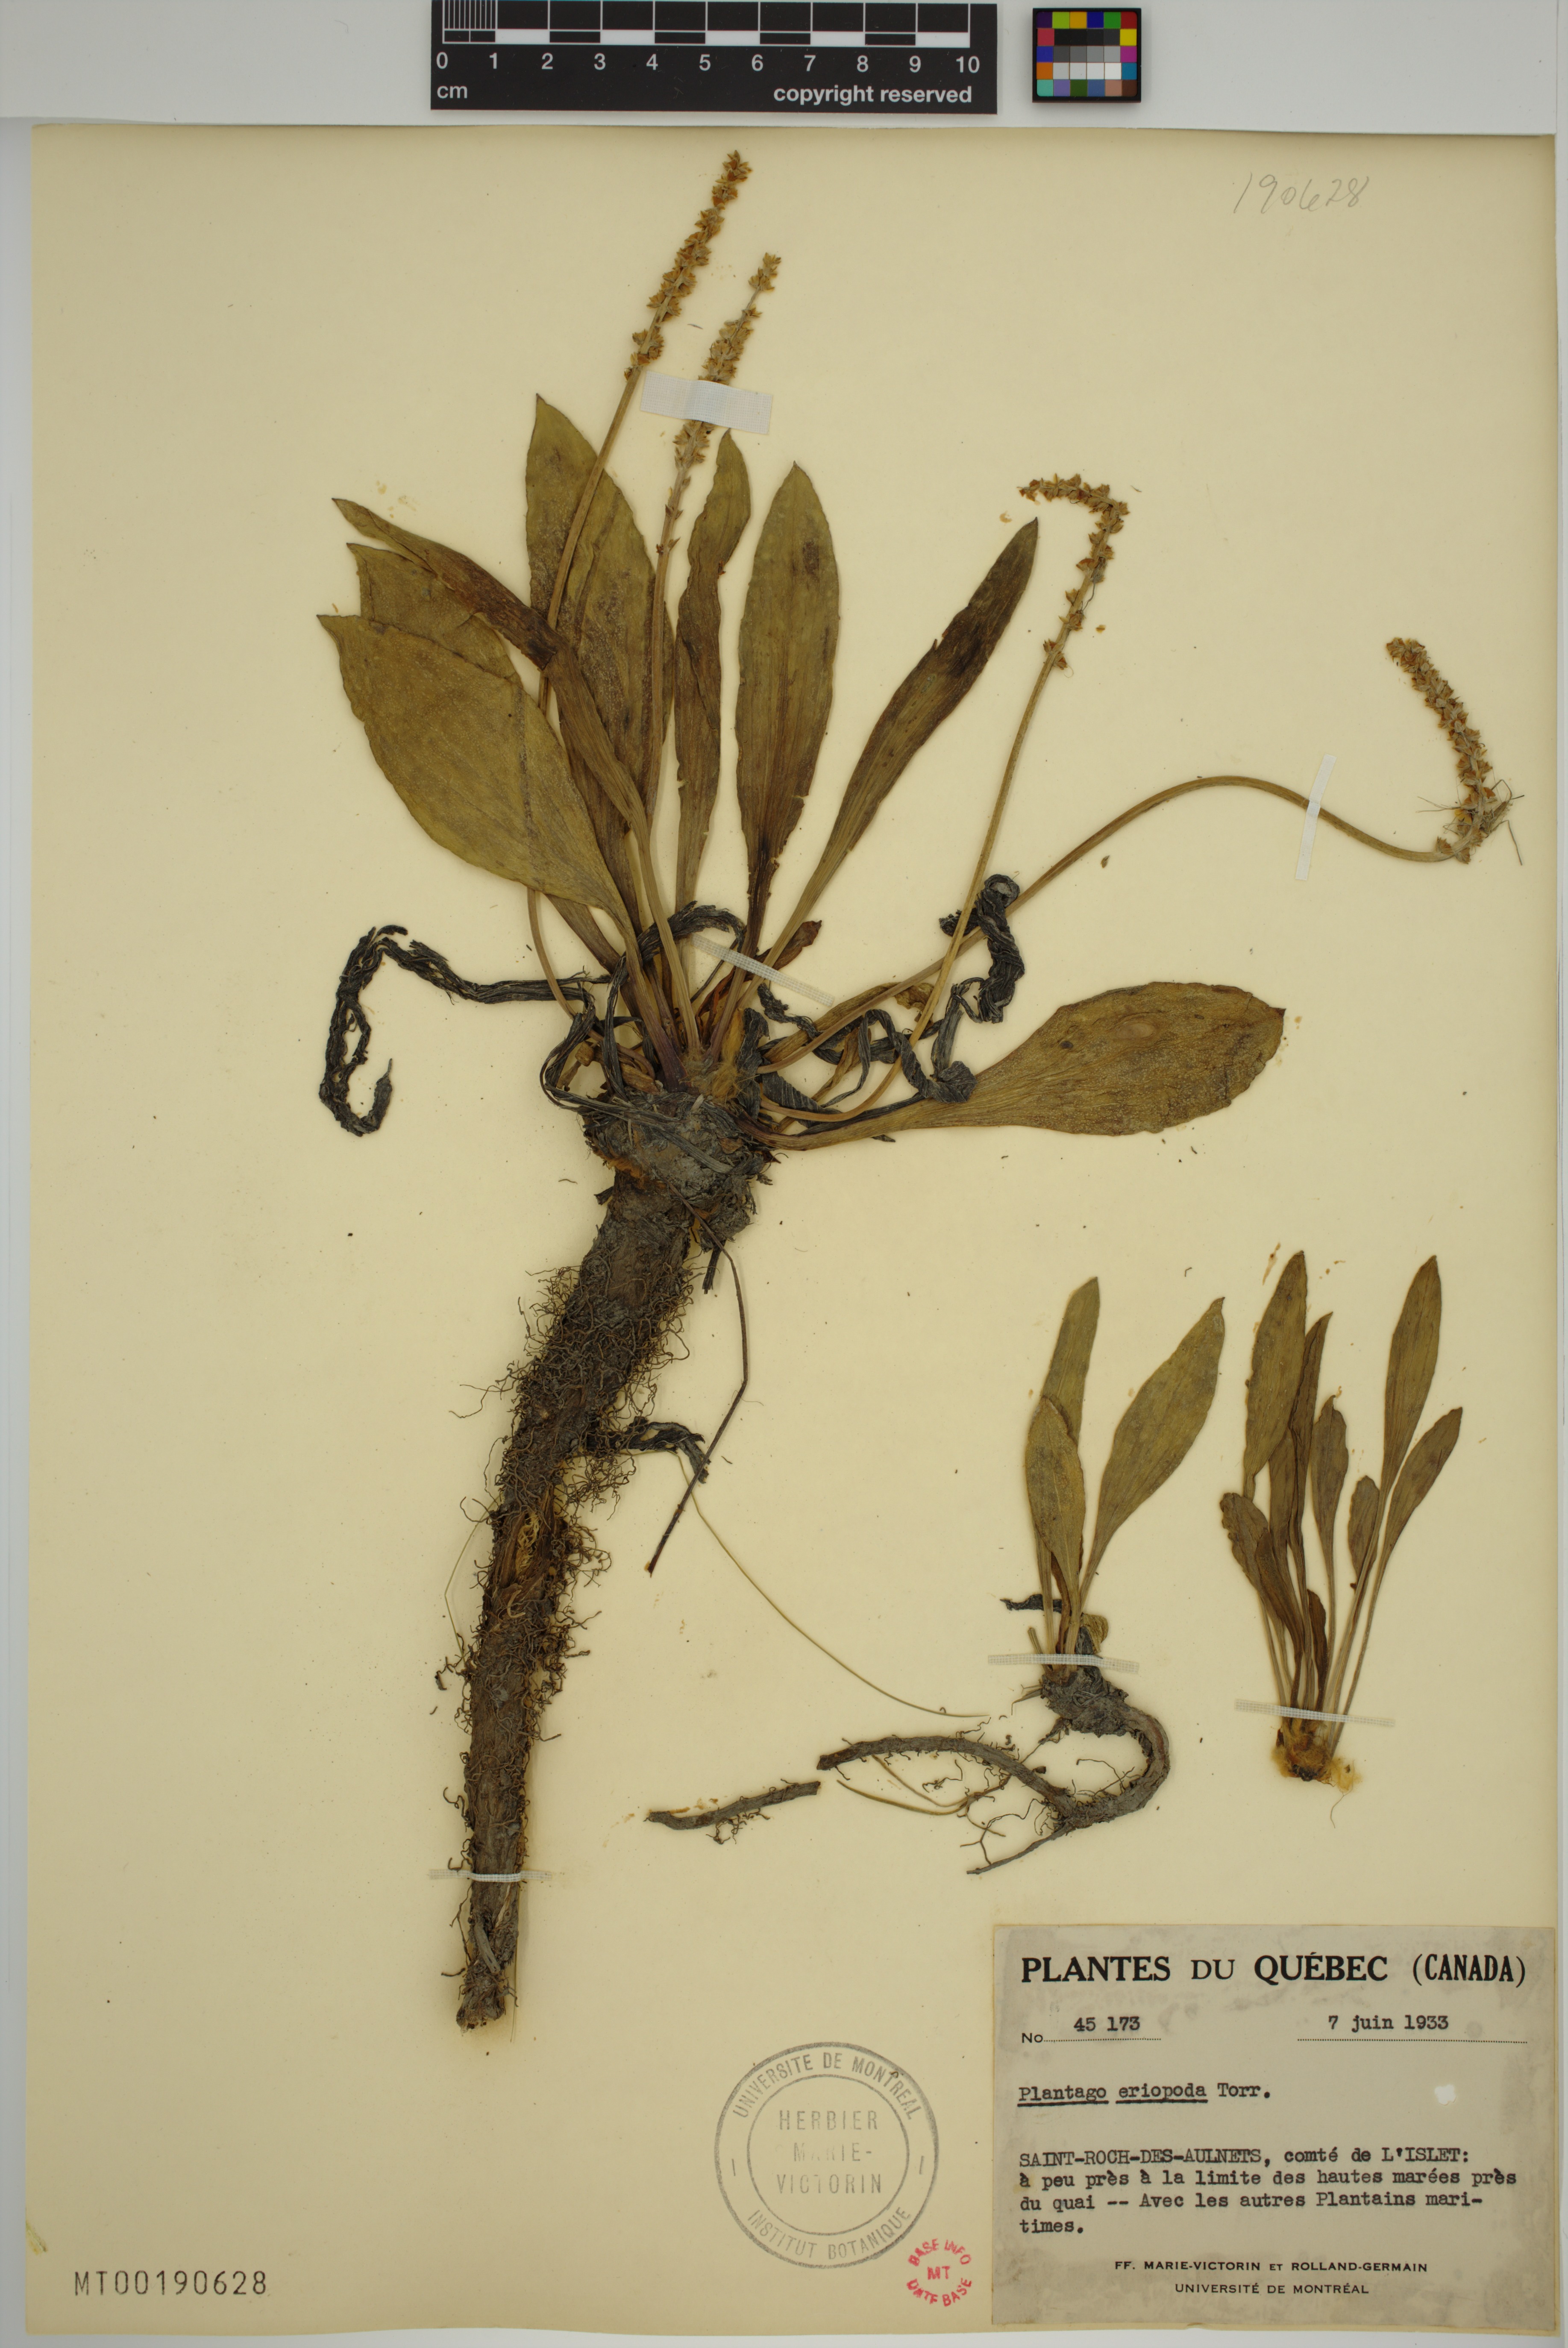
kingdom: Plantae
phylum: Tracheophyta
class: Magnoliopsida
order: Lamiales
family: Plantaginaceae
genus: Plantago
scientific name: Plantago eriopoda
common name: Alkali plantain
